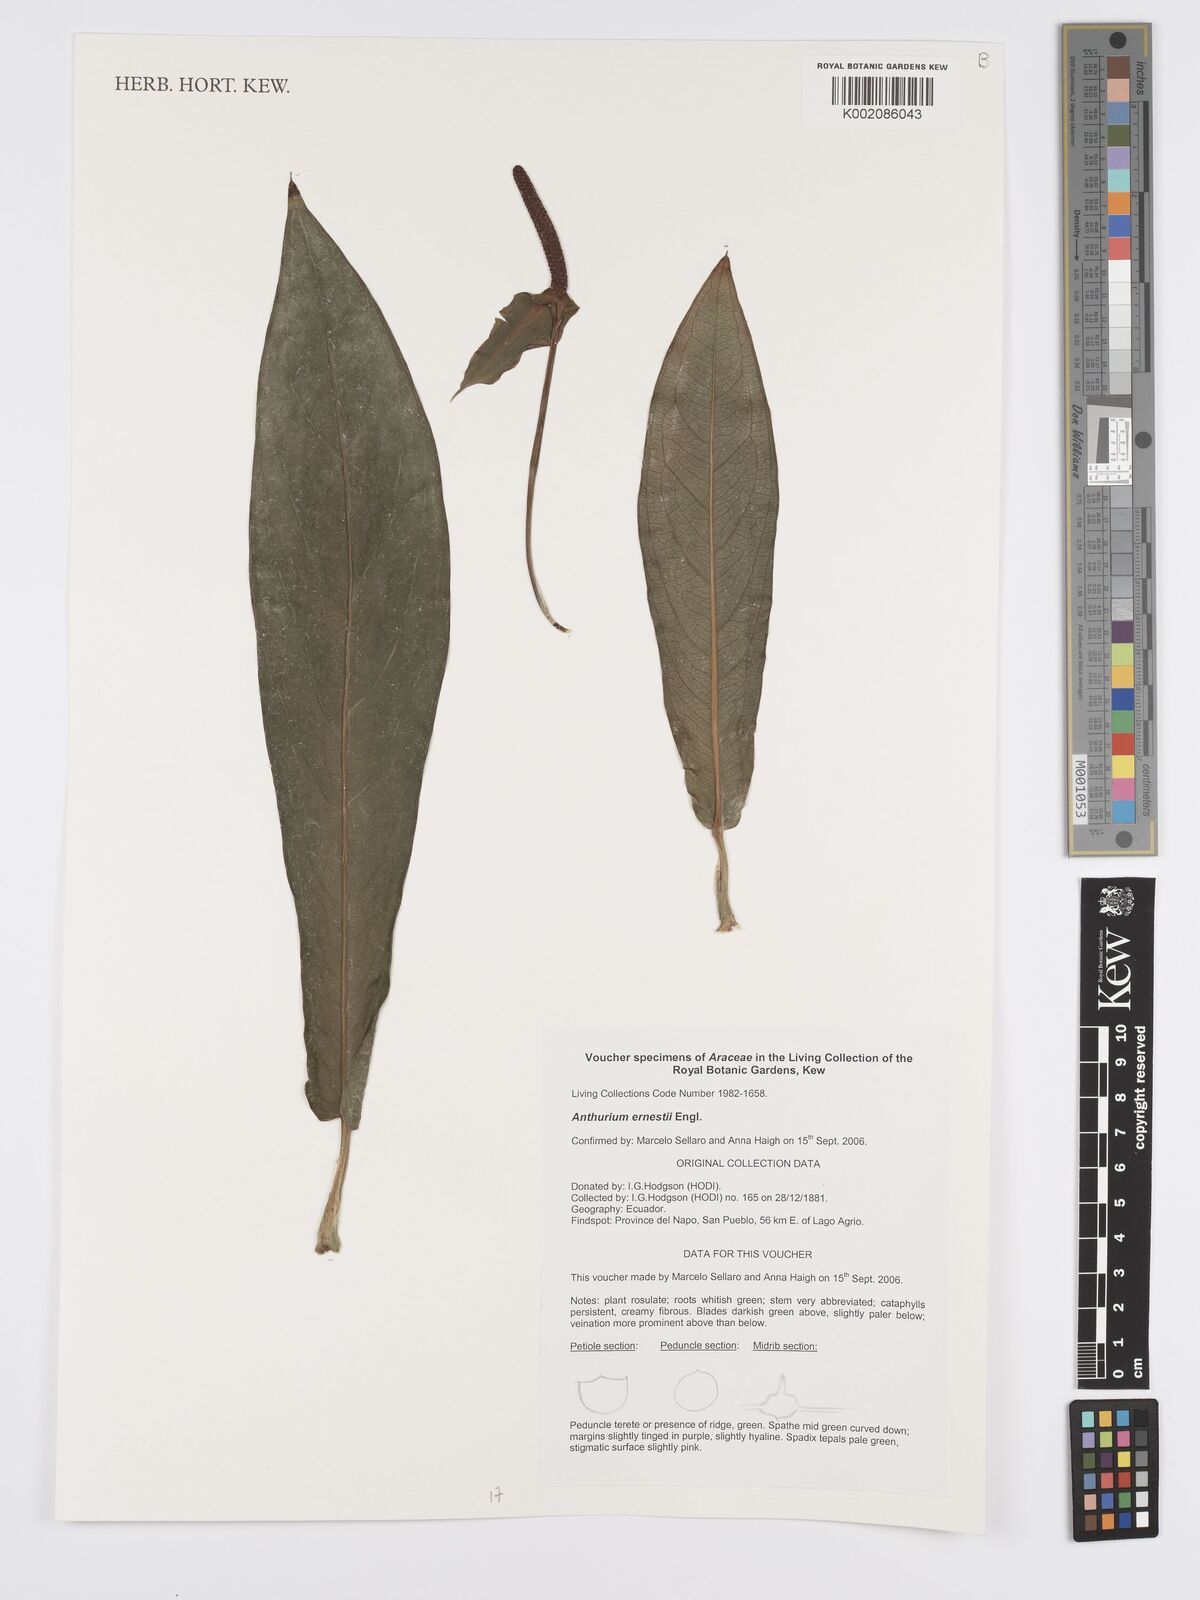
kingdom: Plantae
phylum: Tracheophyta
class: Liliopsida
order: Alismatales
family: Araceae
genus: Anthurium
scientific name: Anthurium ernesti
